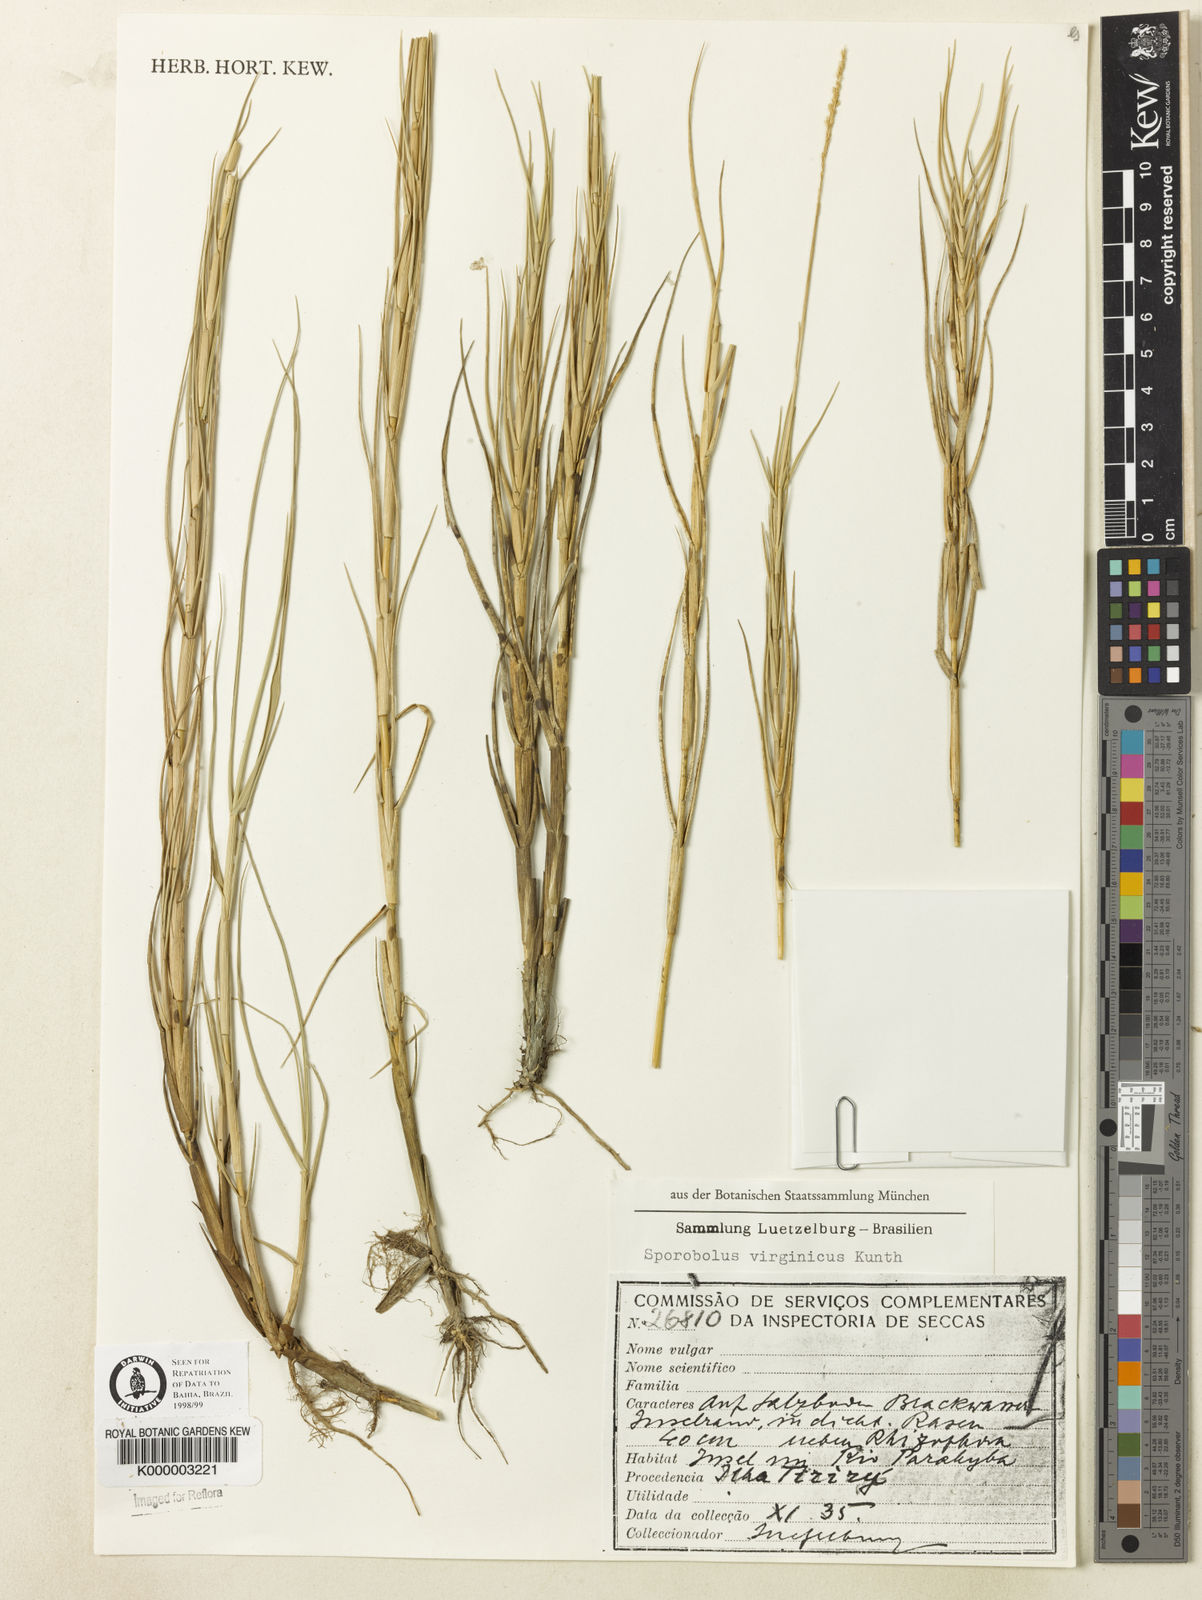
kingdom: Plantae
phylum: Tracheophyta
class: Liliopsida
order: Poales
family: Poaceae
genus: Sporobolus
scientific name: Sporobolus virginicus
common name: Beach dropseed
